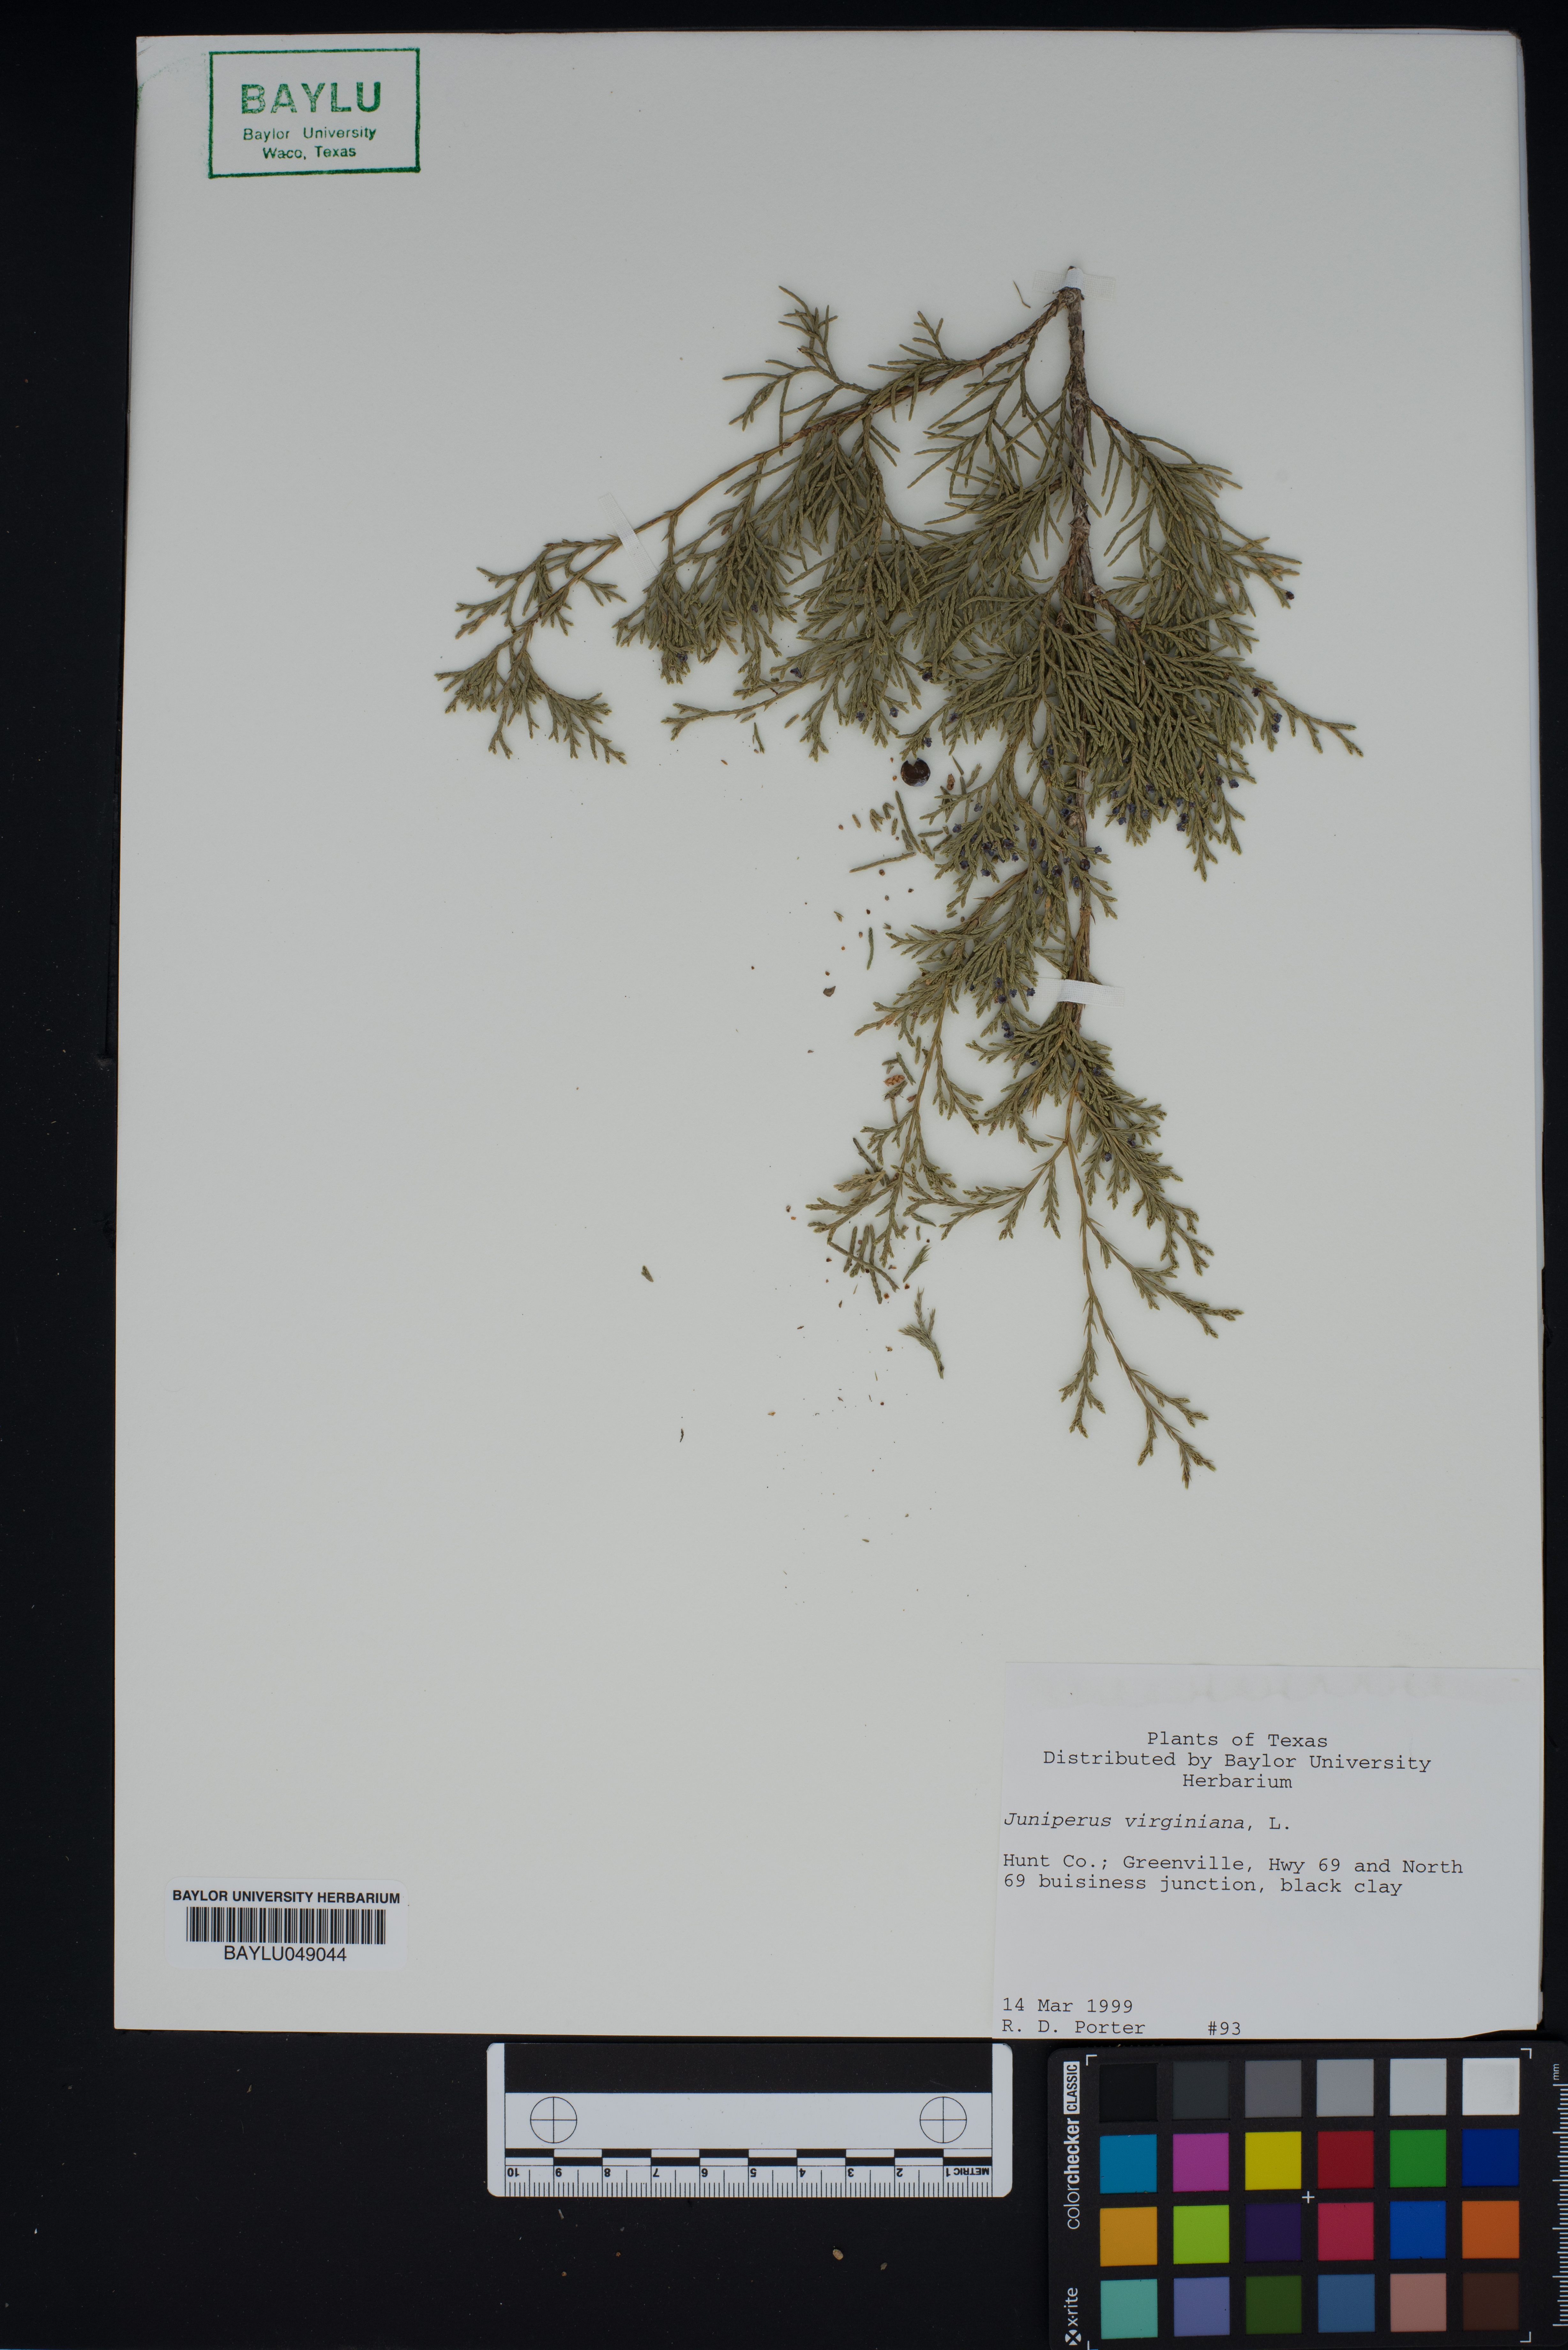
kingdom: Plantae
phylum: Tracheophyta
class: Pinopsida
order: Pinales
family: Cupressaceae
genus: Juniperus
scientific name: Juniperus virginiana
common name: Red juniper
